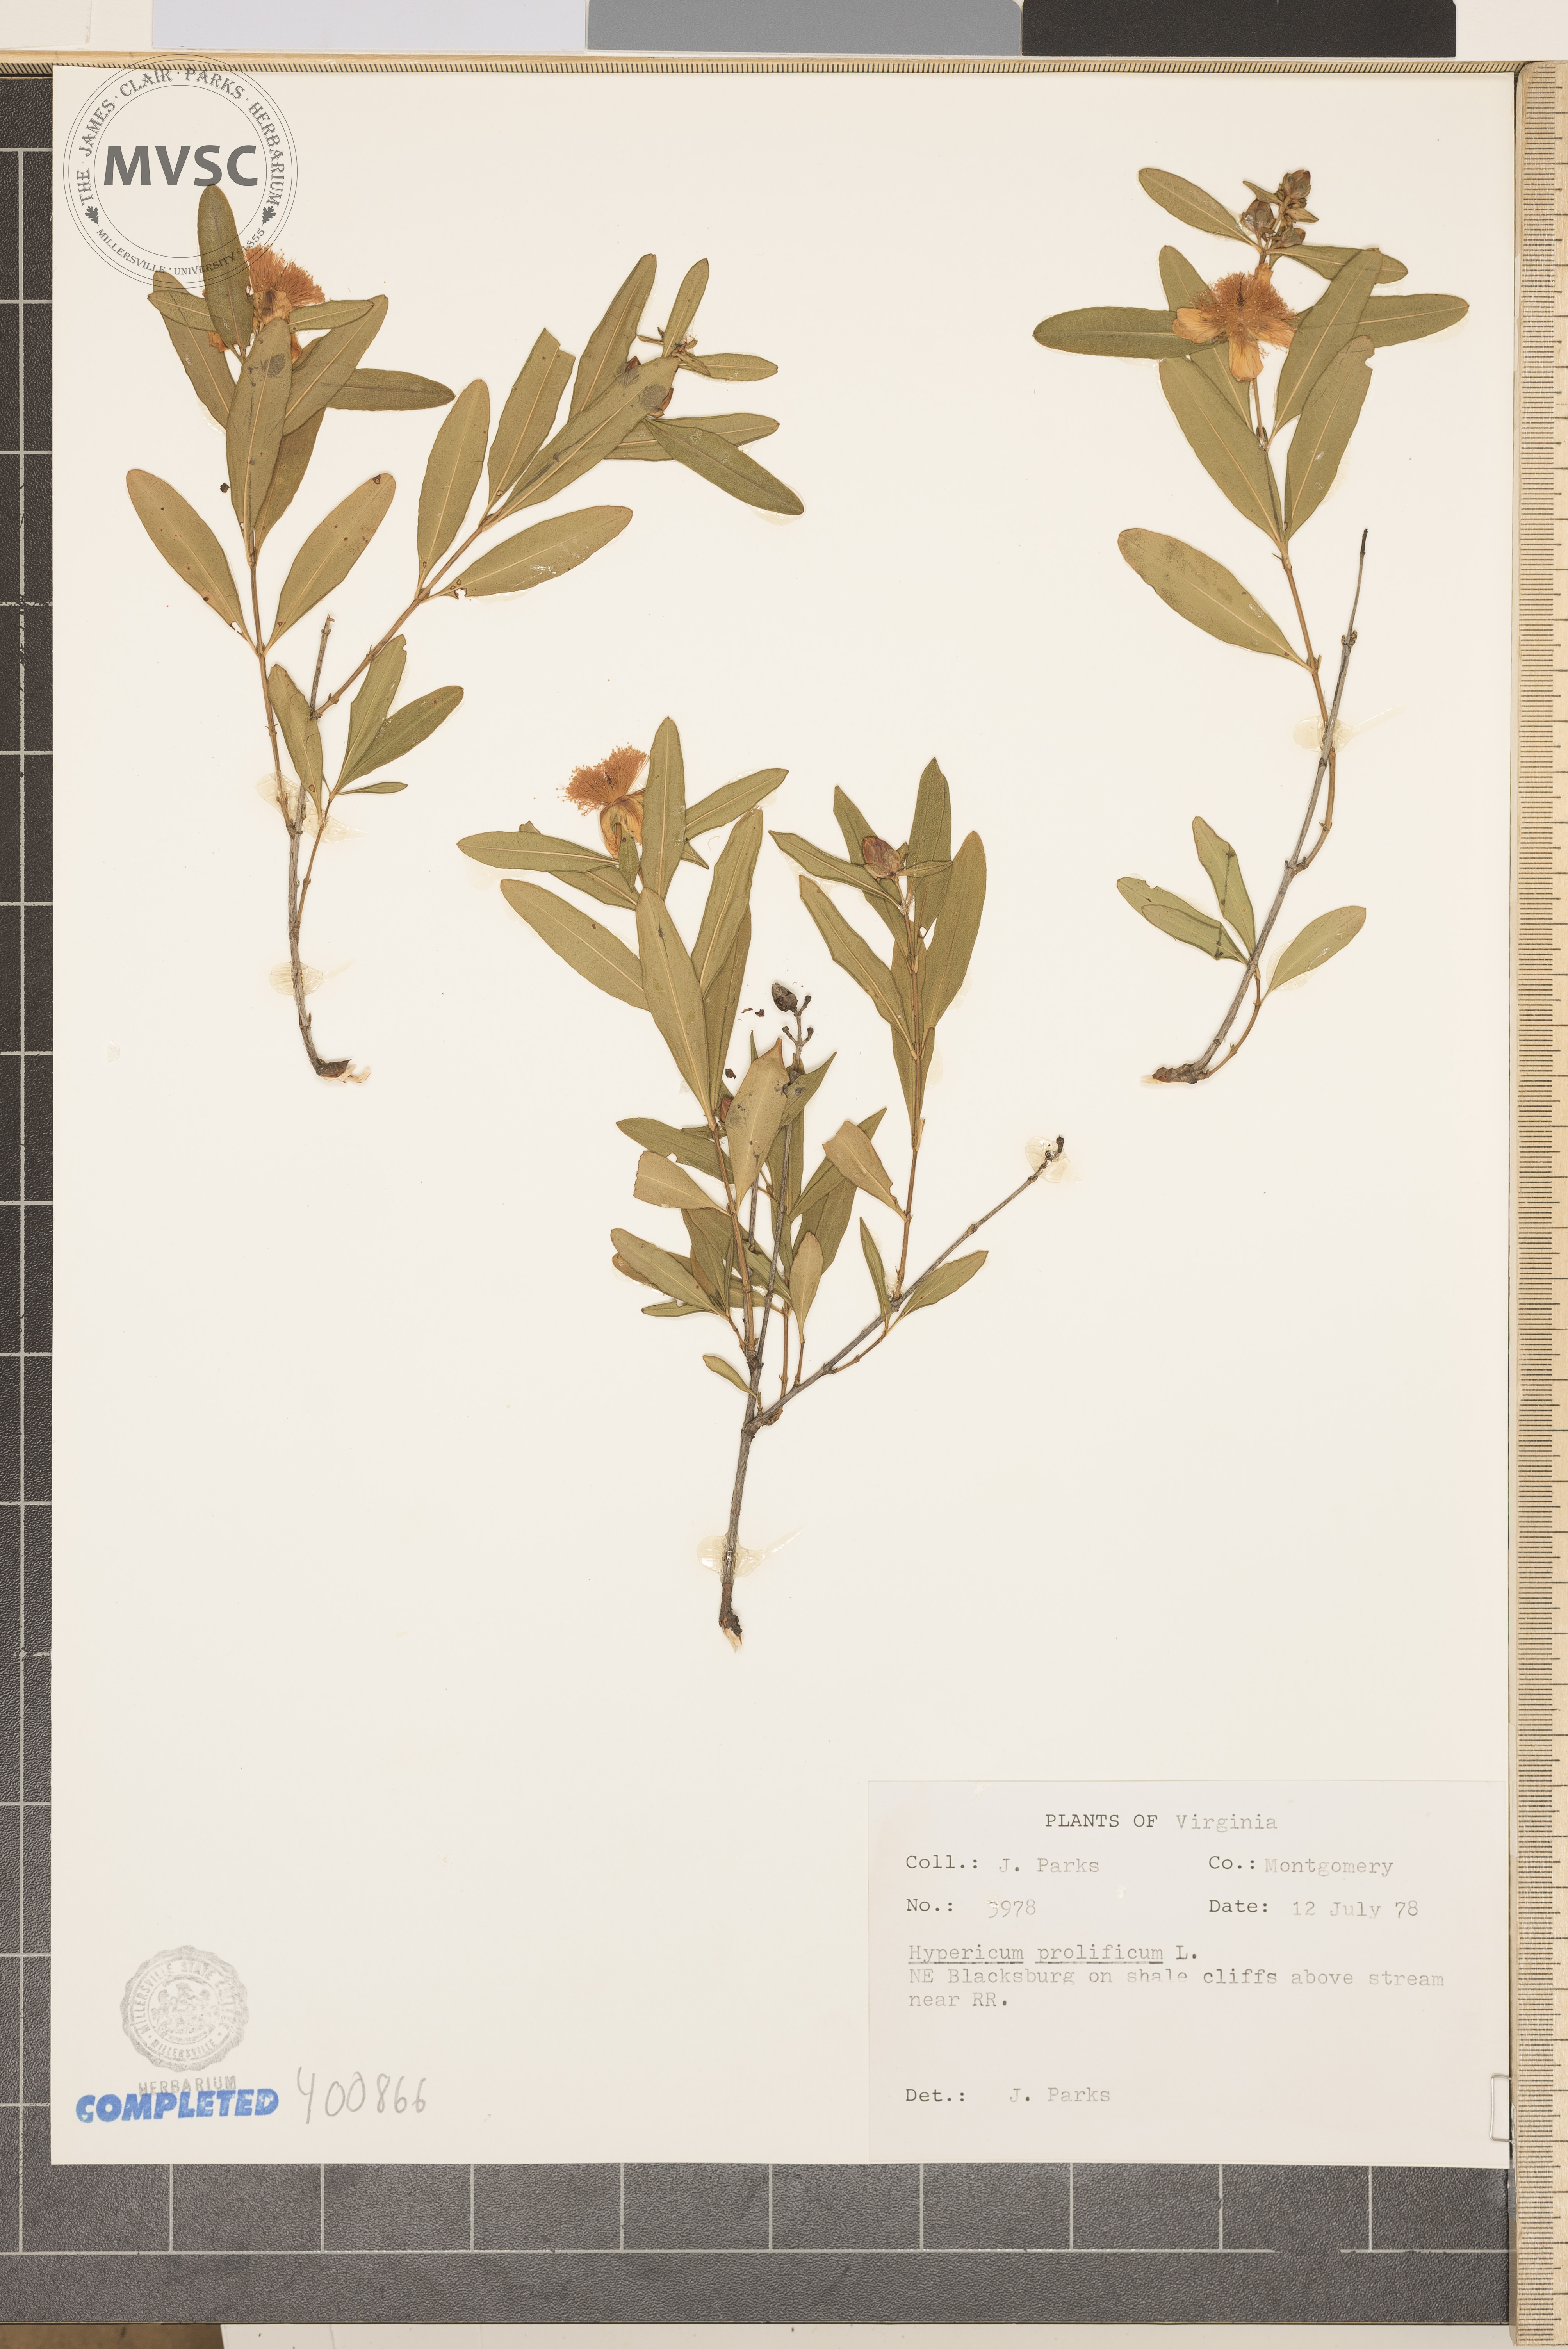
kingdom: Plantae
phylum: Tracheophyta
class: Magnoliopsida
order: Malpighiales
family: Hypericaceae
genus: Hypericum
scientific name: Hypericum prolificum
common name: Shrubby St. John's-wort
